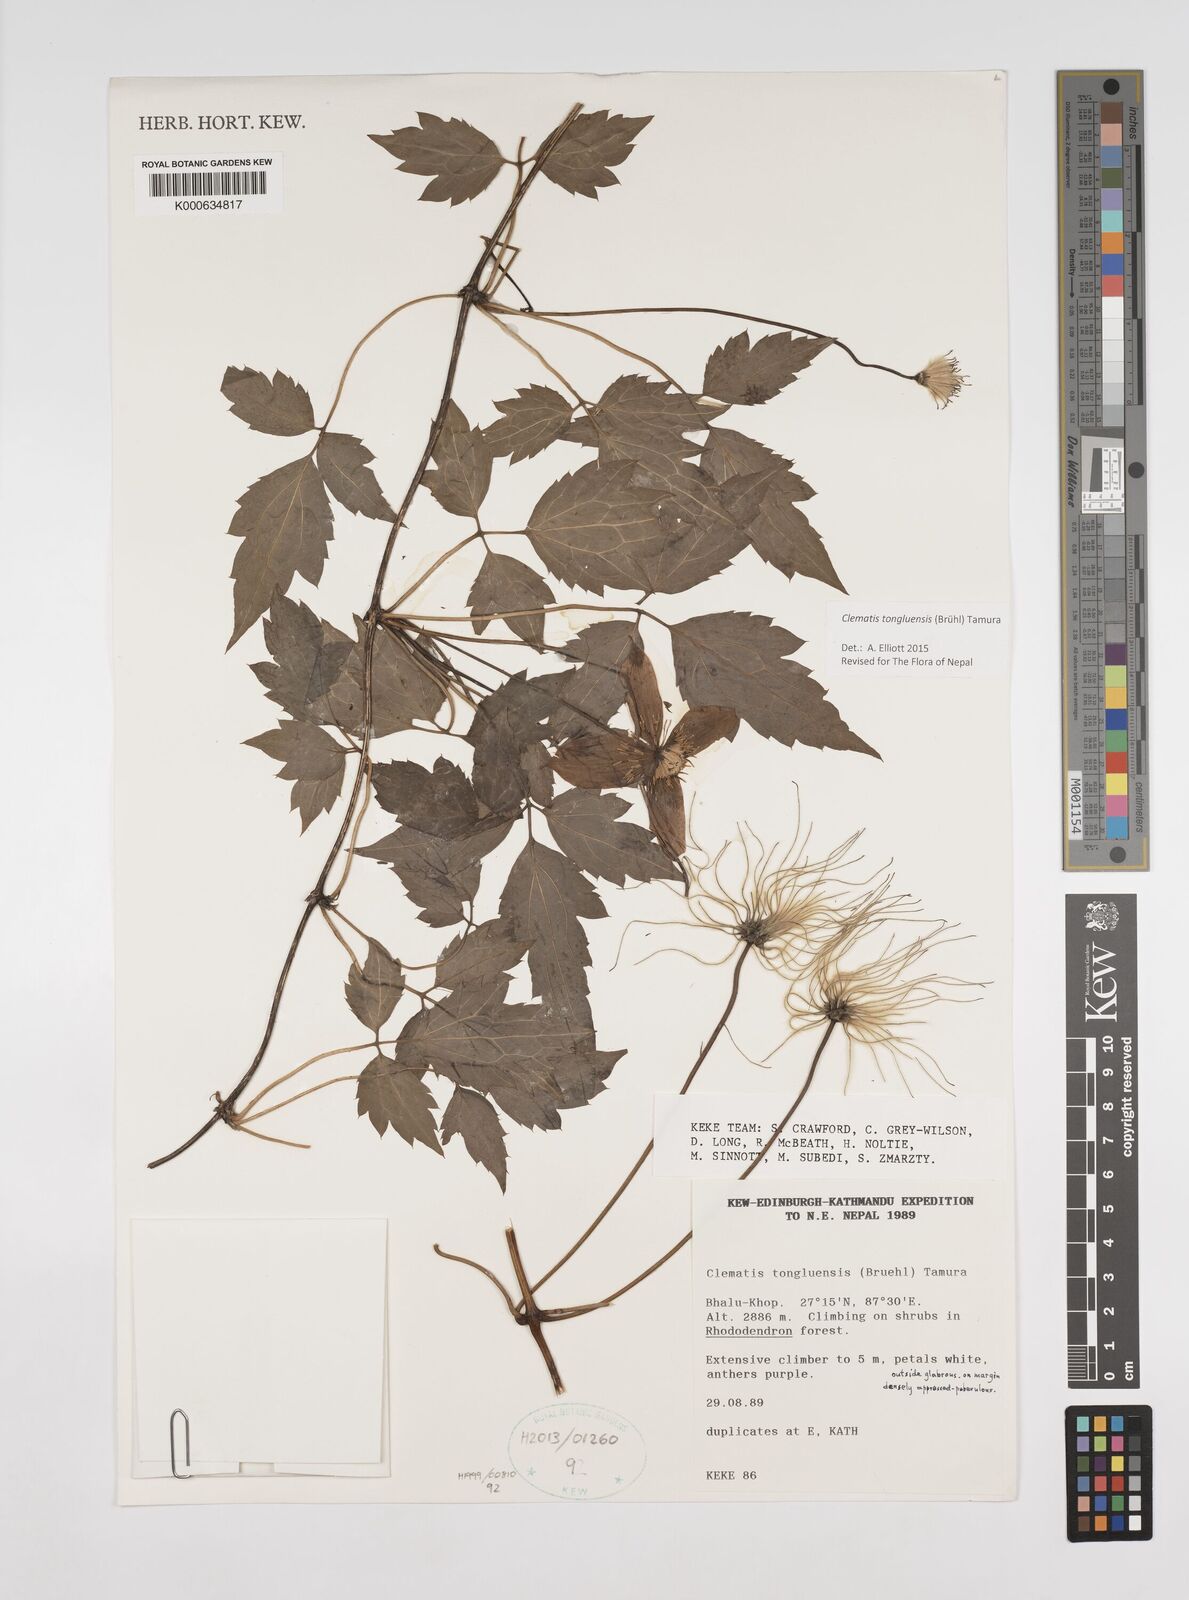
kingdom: Plantae
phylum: Tracheophyta
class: Magnoliopsida
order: Ranunculales
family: Ranunculaceae
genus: Clematis
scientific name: Clematis tongluensis
